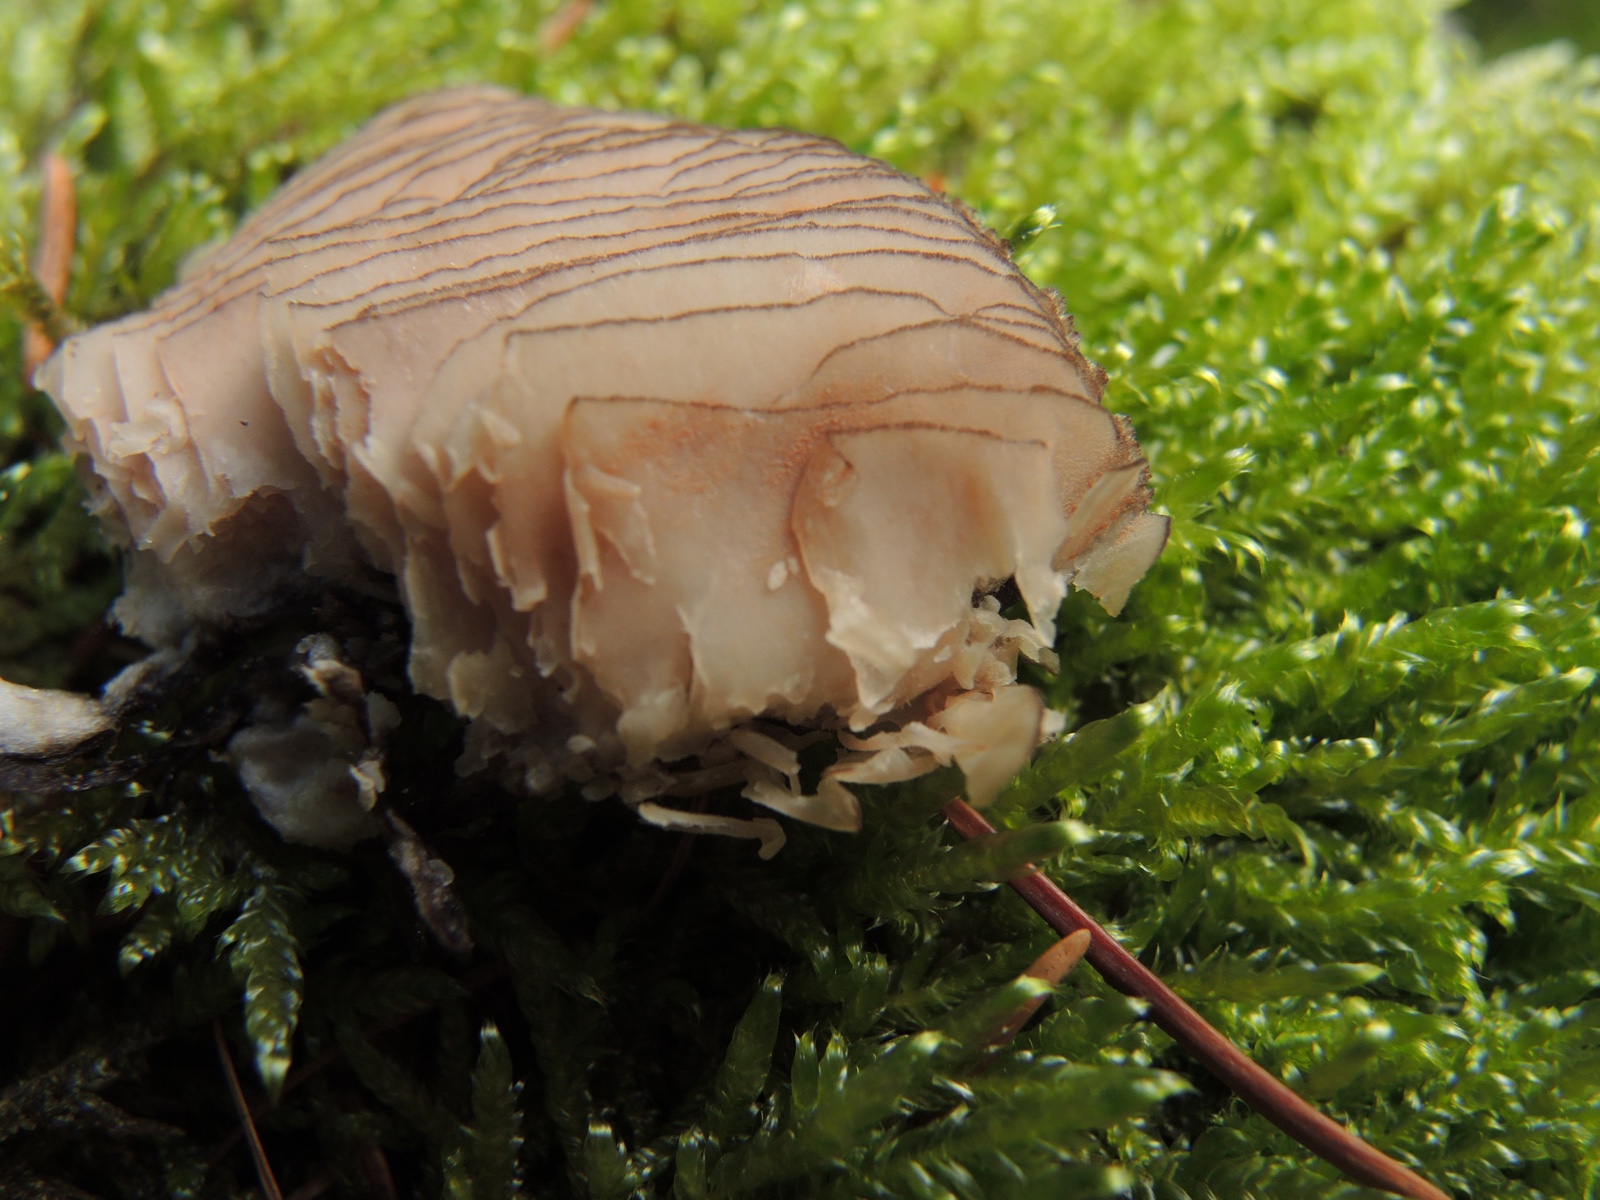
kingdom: Fungi
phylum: Basidiomycota
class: Agaricomycetes
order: Agaricales
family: Pluteaceae
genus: Pluteus
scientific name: Pluteus atromarginatus
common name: sortrandet skærmhat
